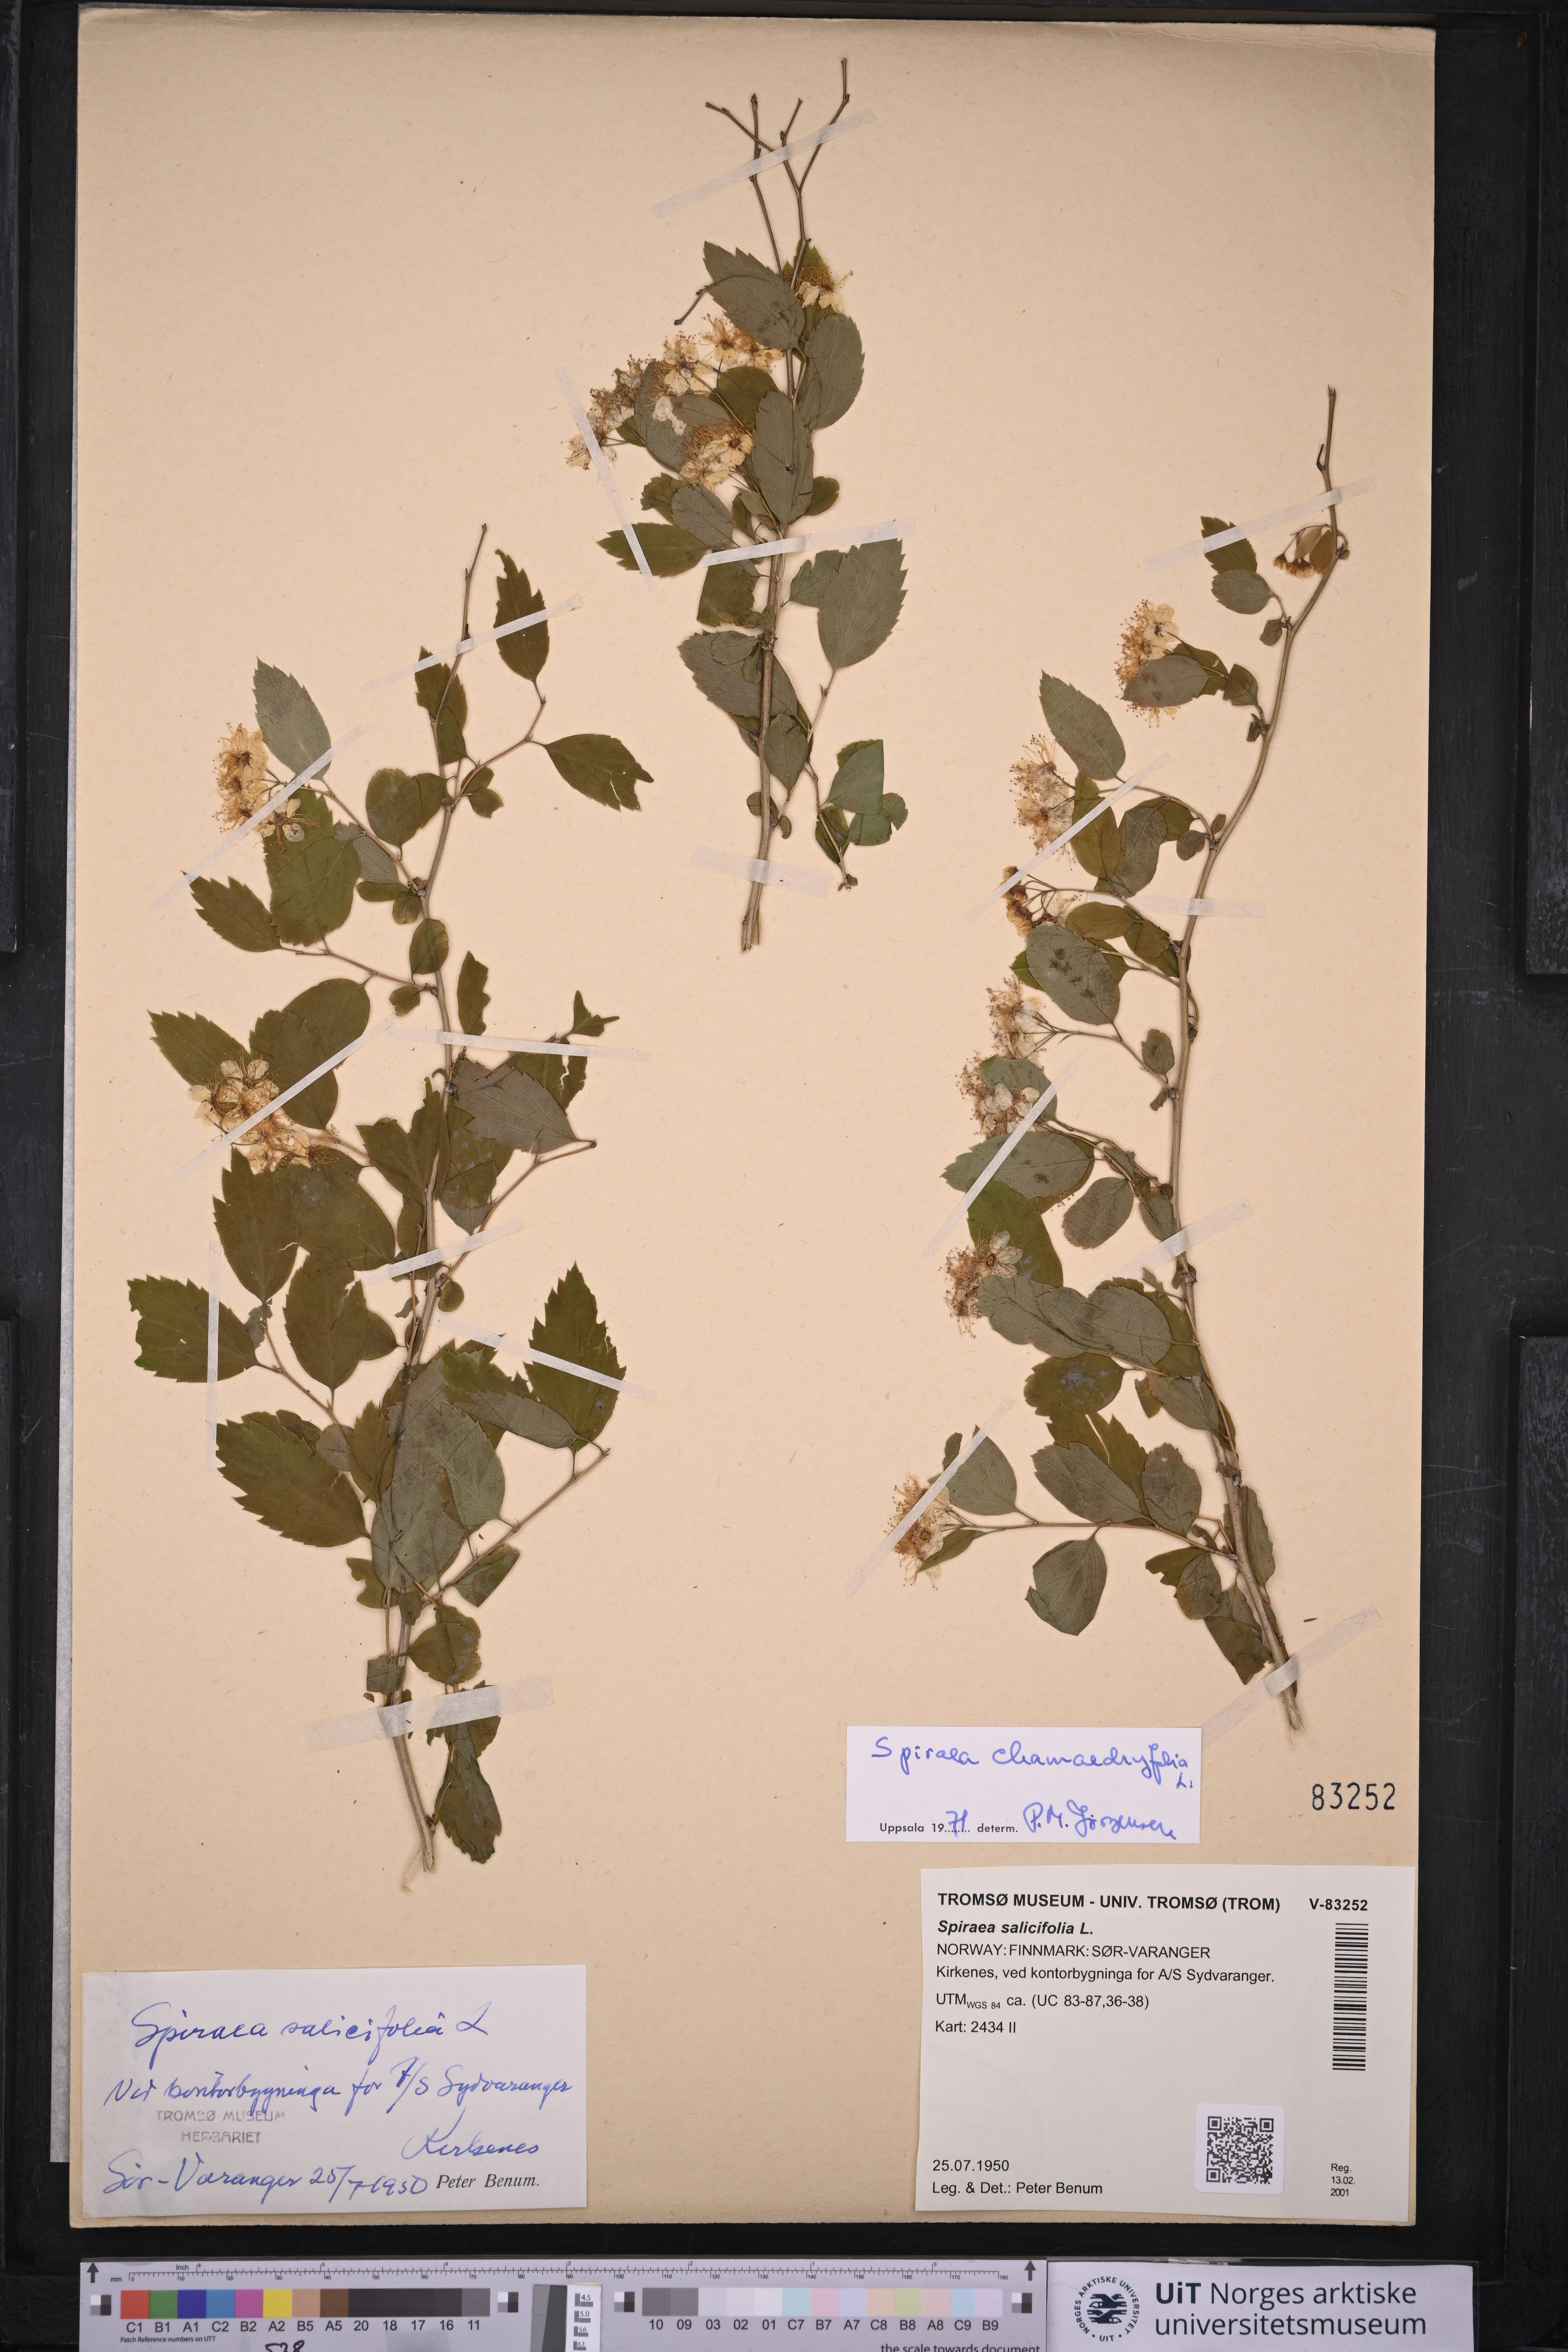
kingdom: Plantae
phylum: Tracheophyta
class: Magnoliopsida
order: Rosales
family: Rosaceae
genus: Spiraea
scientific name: Spiraea chamaedryfolia
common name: Elm-leaved spiraea
